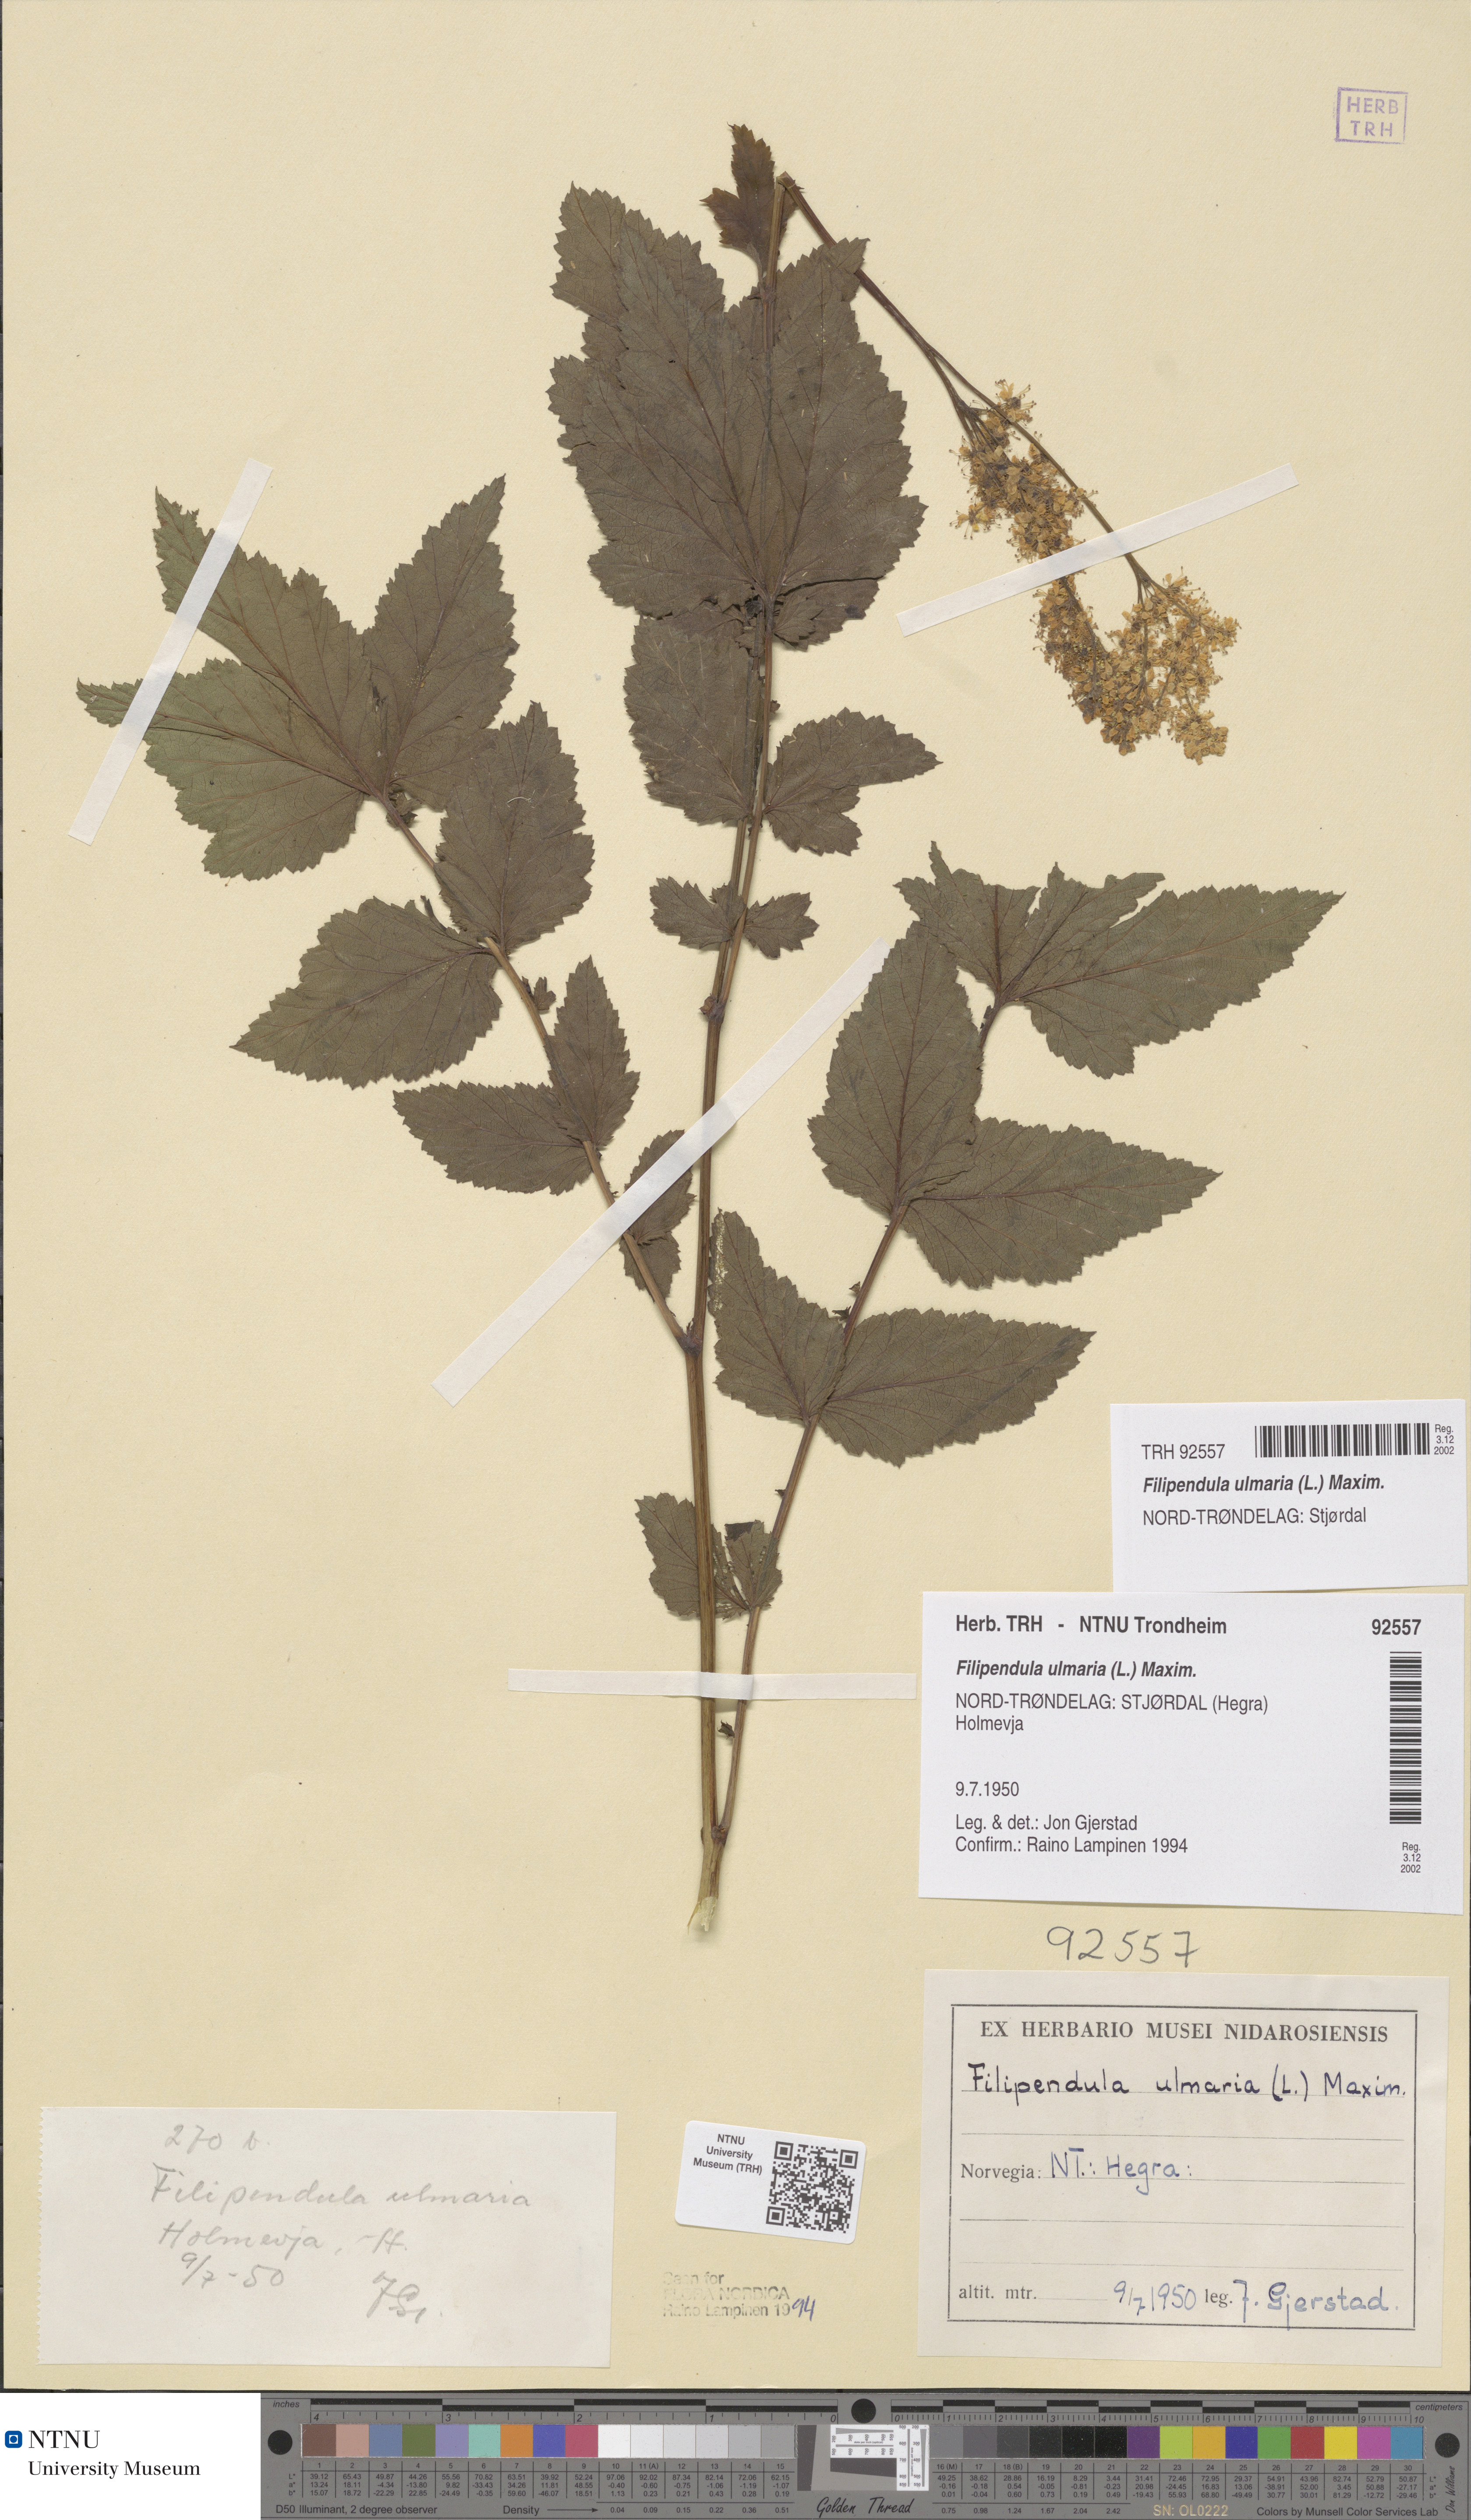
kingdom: Plantae
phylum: Tracheophyta
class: Magnoliopsida
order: Rosales
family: Rosaceae
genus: Filipendula
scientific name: Filipendula ulmaria
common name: Meadowsweet
